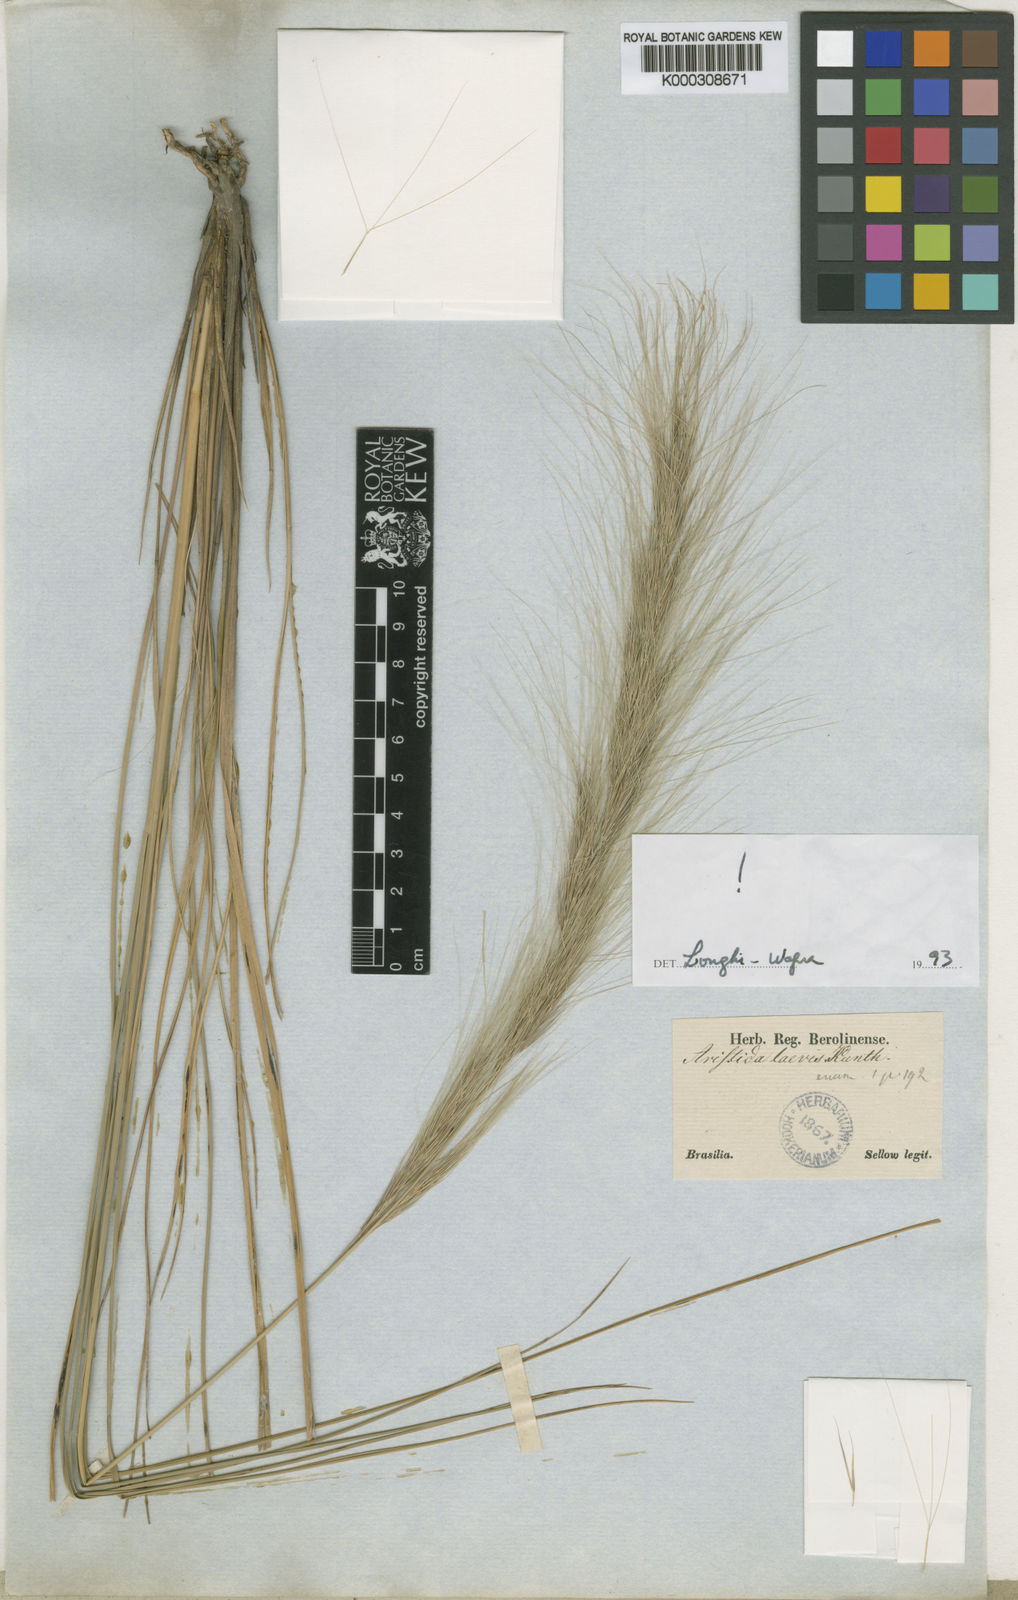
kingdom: Plantae
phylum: Tracheophyta
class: Liliopsida
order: Poales
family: Poaceae
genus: Aristida
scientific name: Aristida laevis
